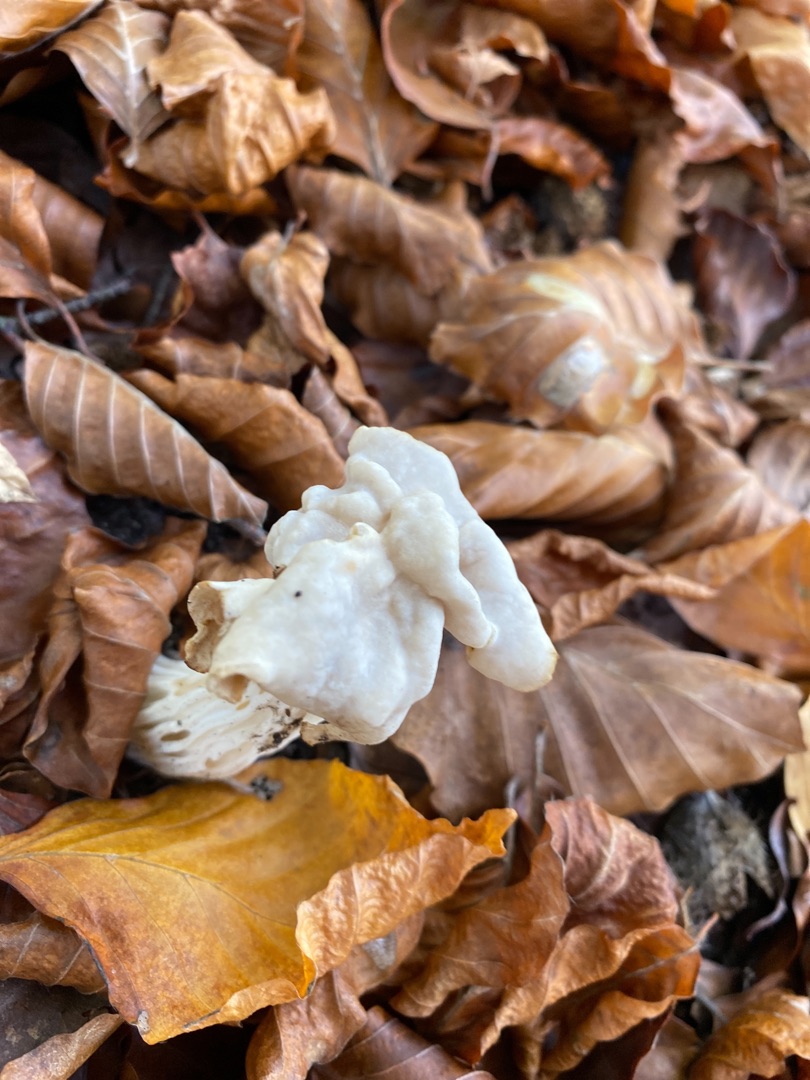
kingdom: Fungi
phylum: Ascomycota
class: Pezizomycetes
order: Pezizales
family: Helvellaceae
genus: Helvella
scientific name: Helvella crispa
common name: Kruset foldhat
